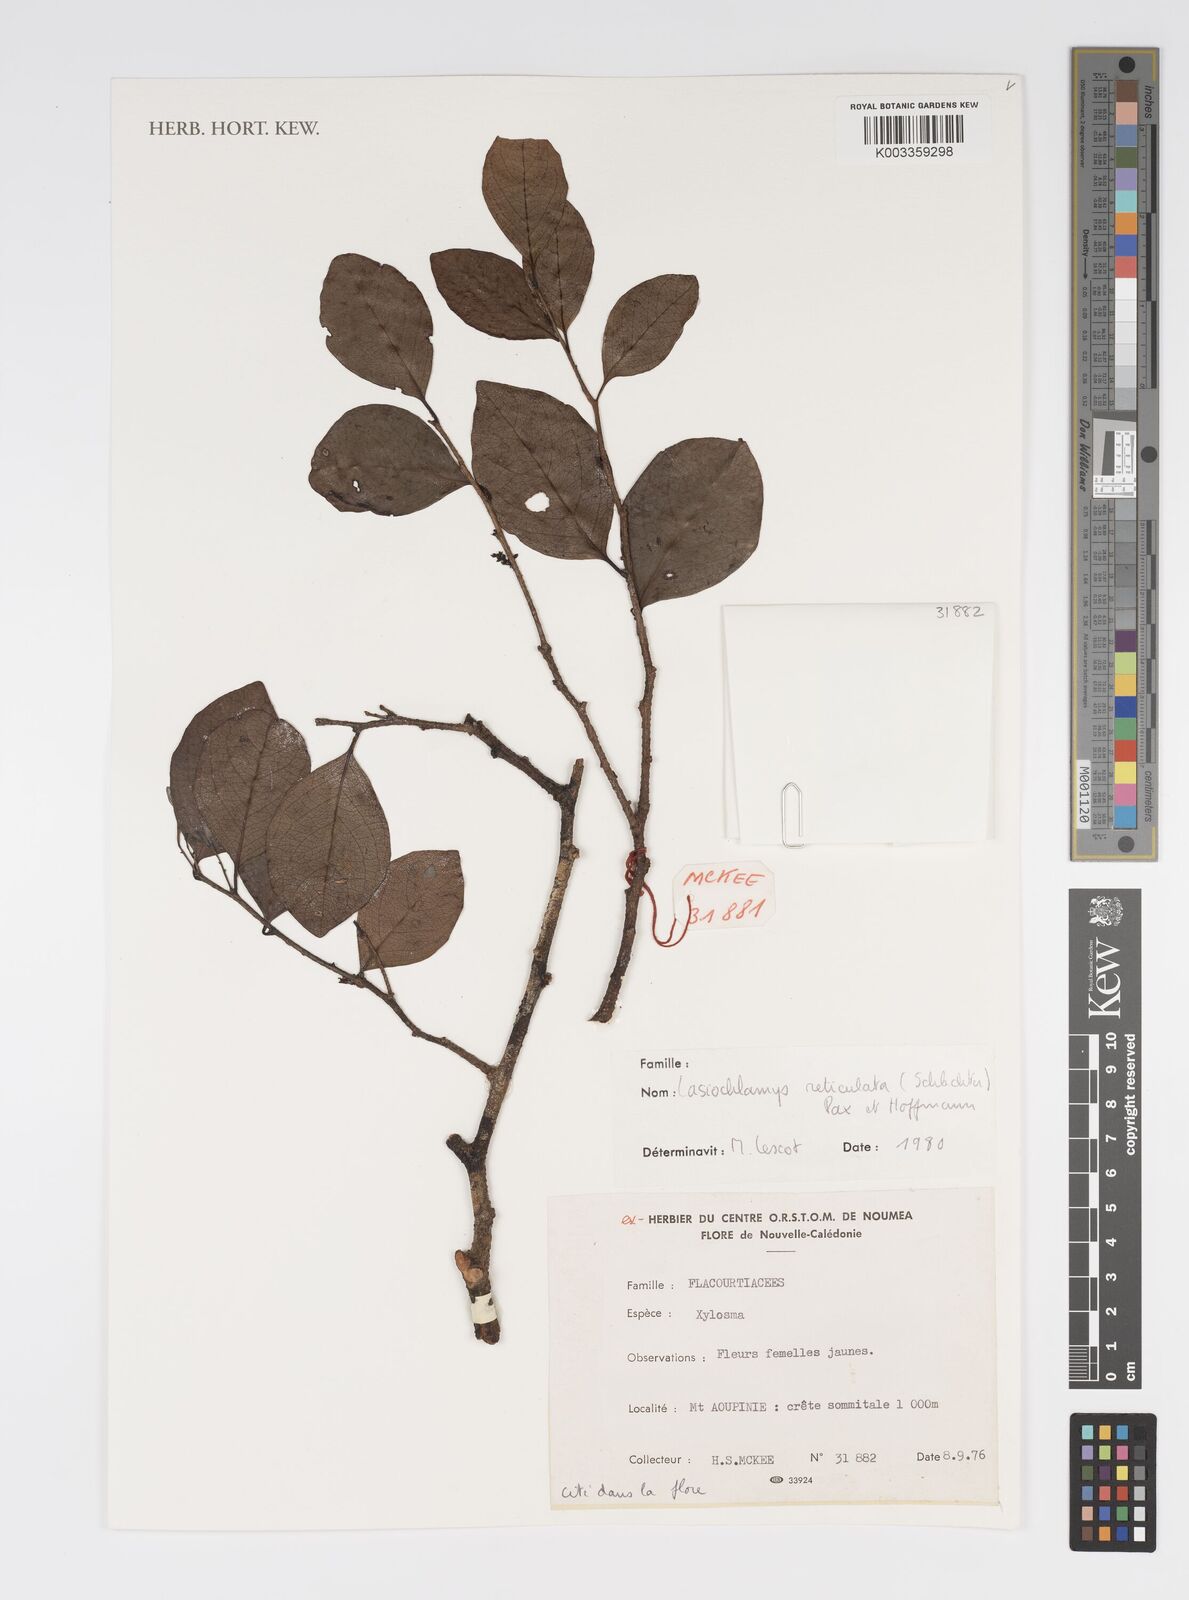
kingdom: Plantae
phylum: Tracheophyta
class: Magnoliopsida
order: Malpighiales
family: Salicaceae
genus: Lasiochlamys
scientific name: Lasiochlamys reticulata
